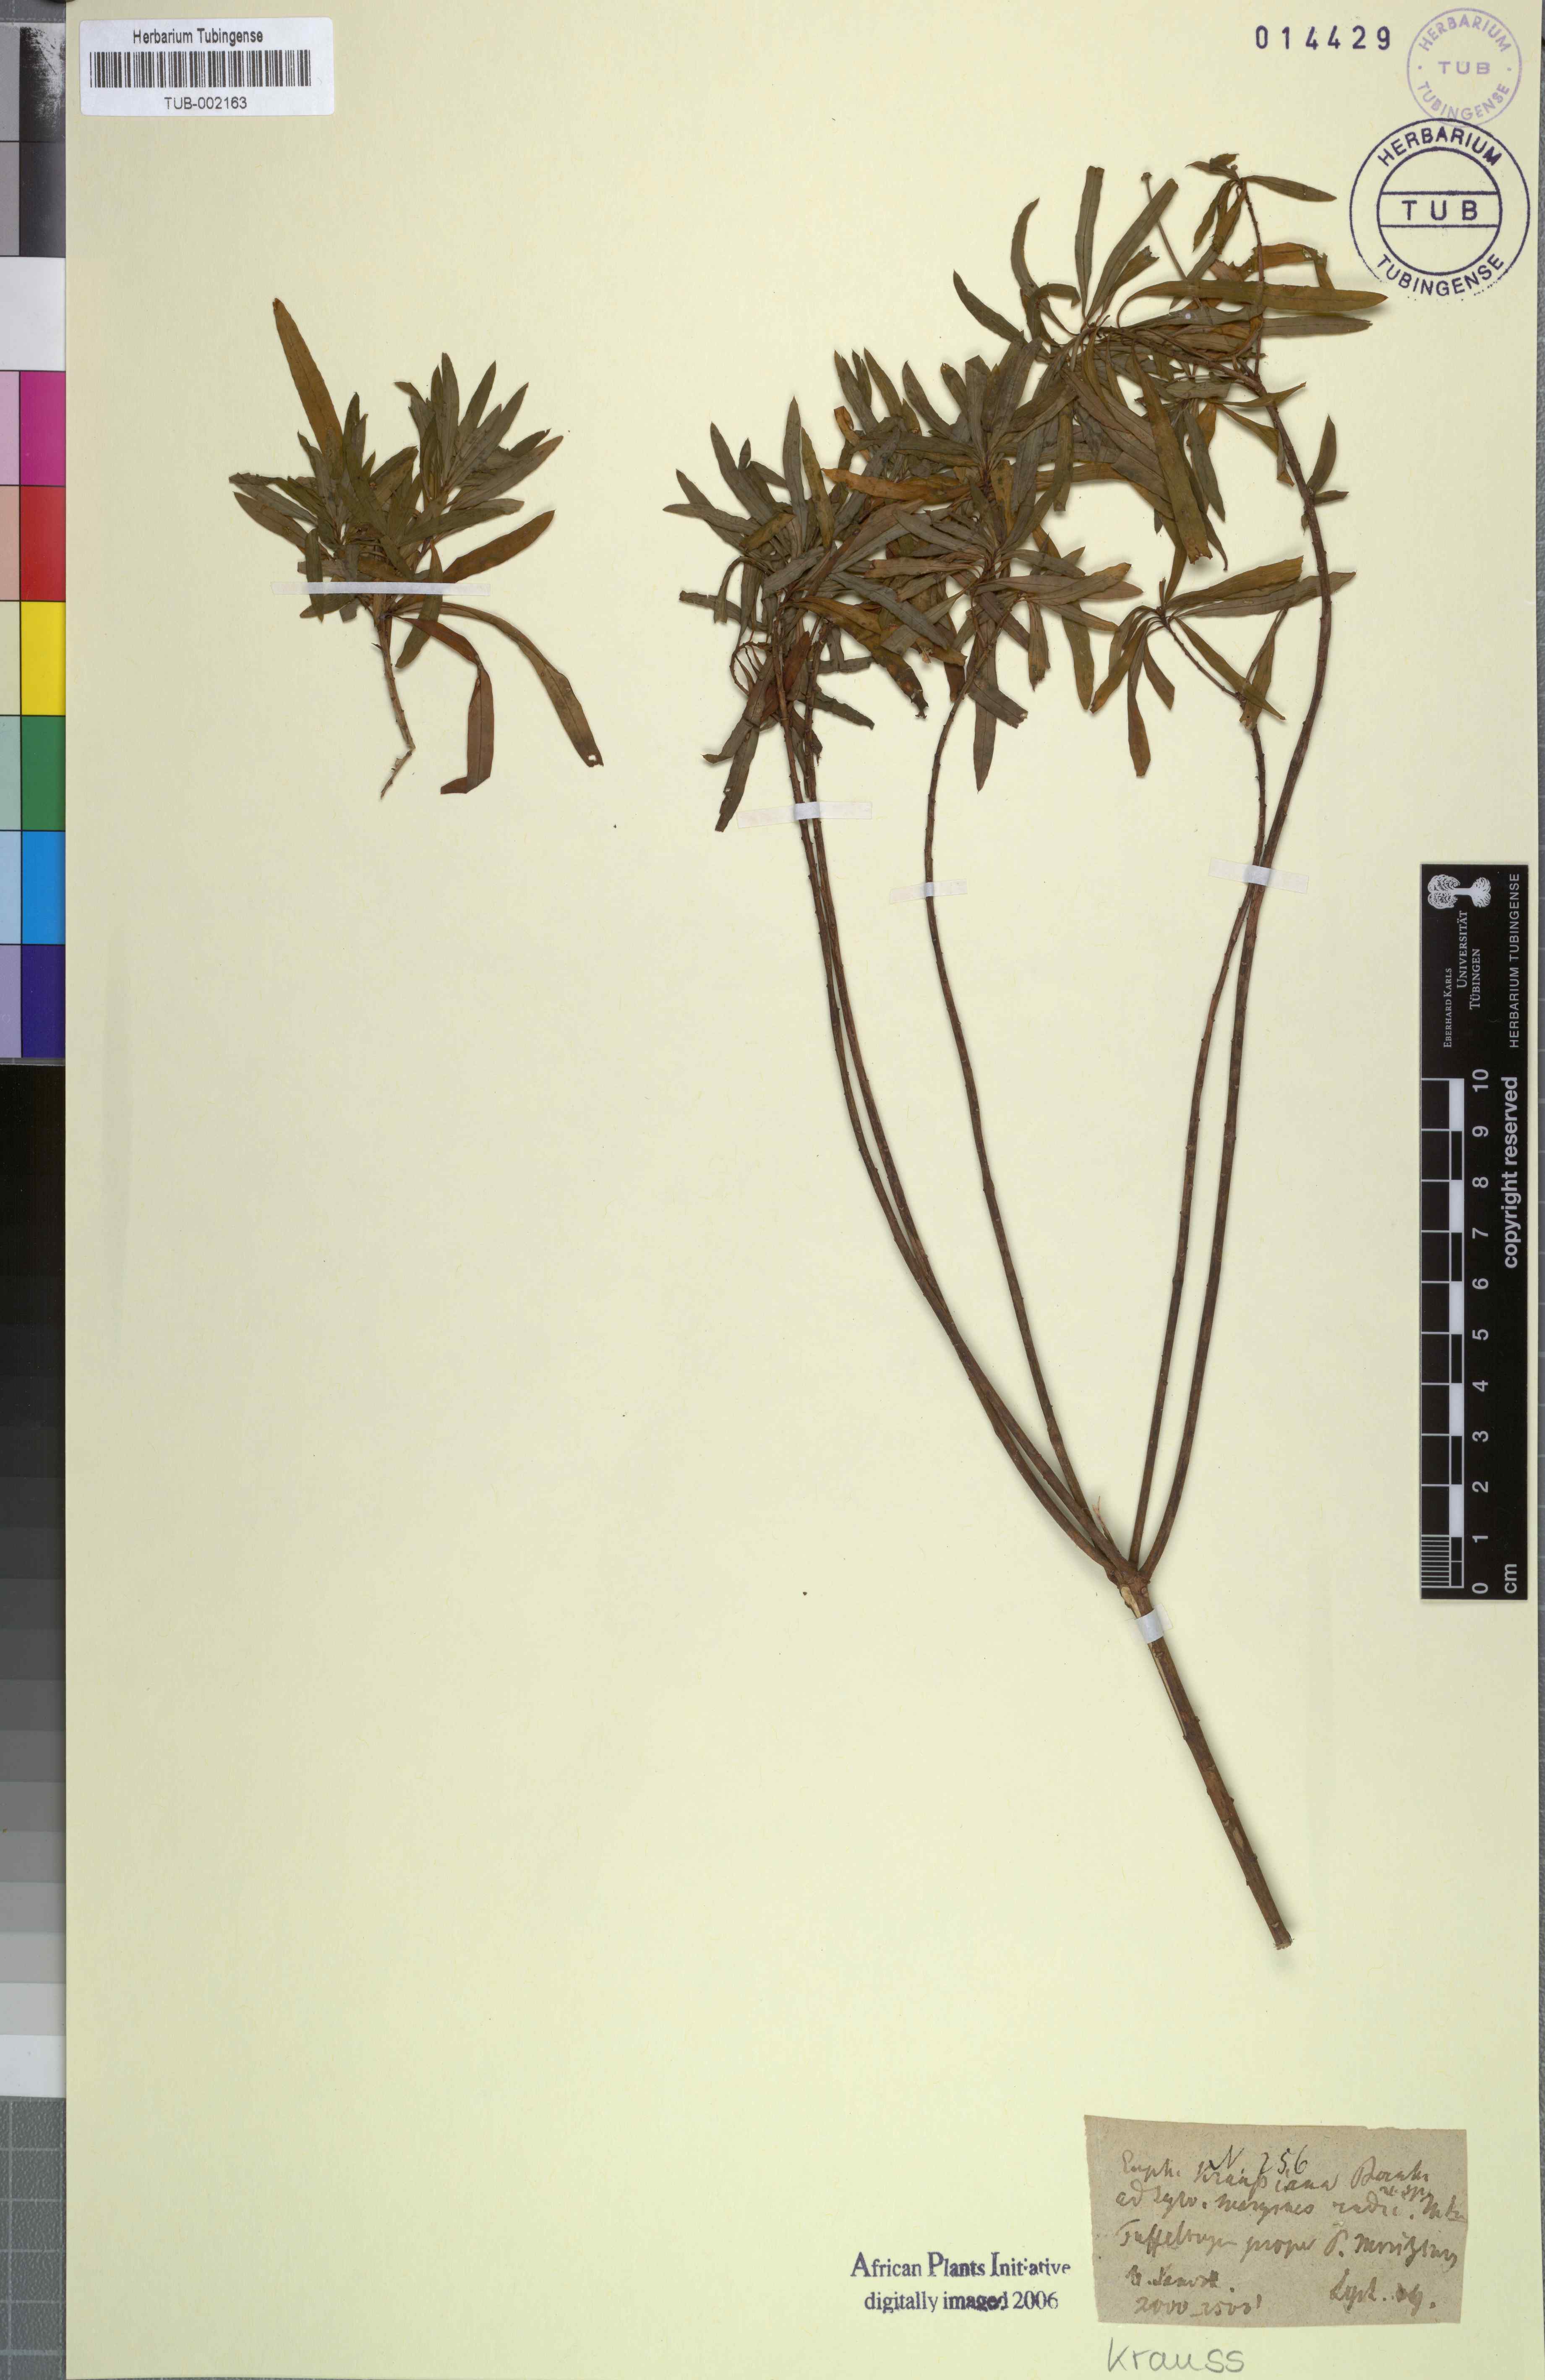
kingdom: Plantae
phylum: Tracheophyta
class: Magnoliopsida
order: Malpighiales
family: Euphorbiaceae
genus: Euphorbia
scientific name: Euphorbia kraussiana
